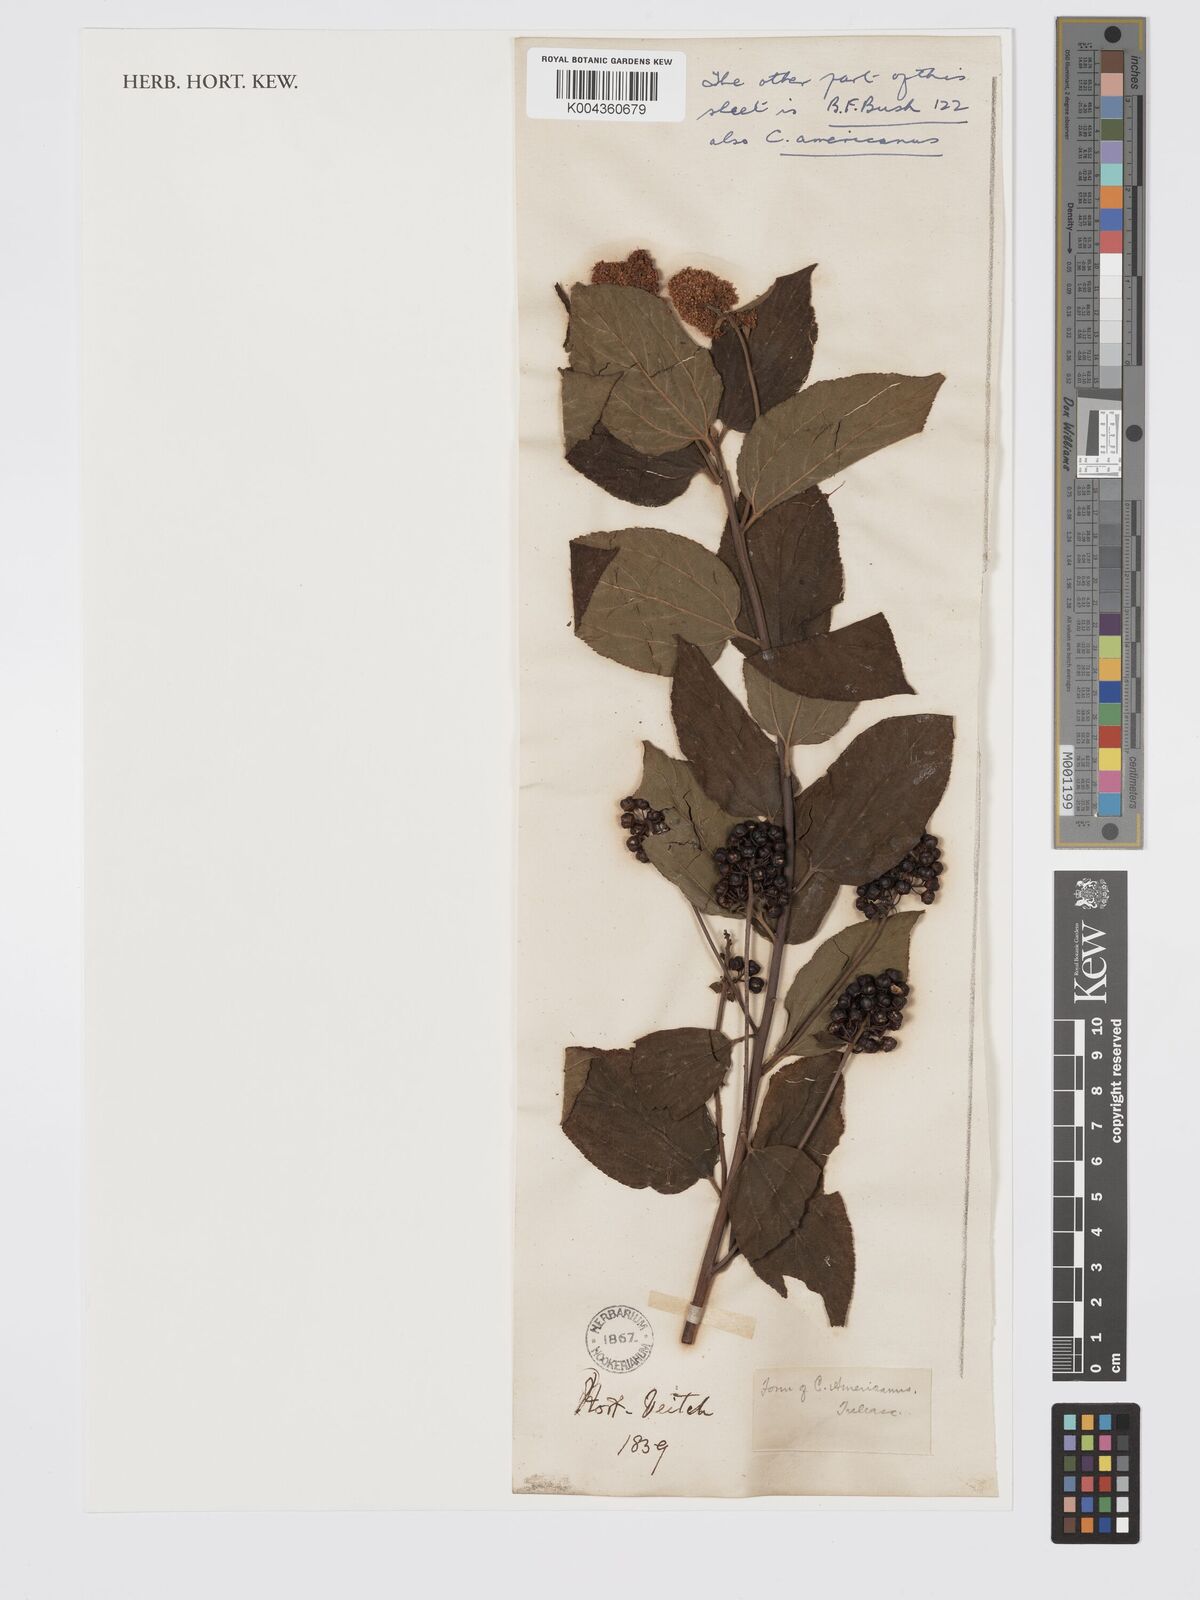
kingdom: Plantae
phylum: Tracheophyta
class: Magnoliopsida
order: Rosales
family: Rhamnaceae
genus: Ceanothus
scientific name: Ceanothus americanus
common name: Redroot
